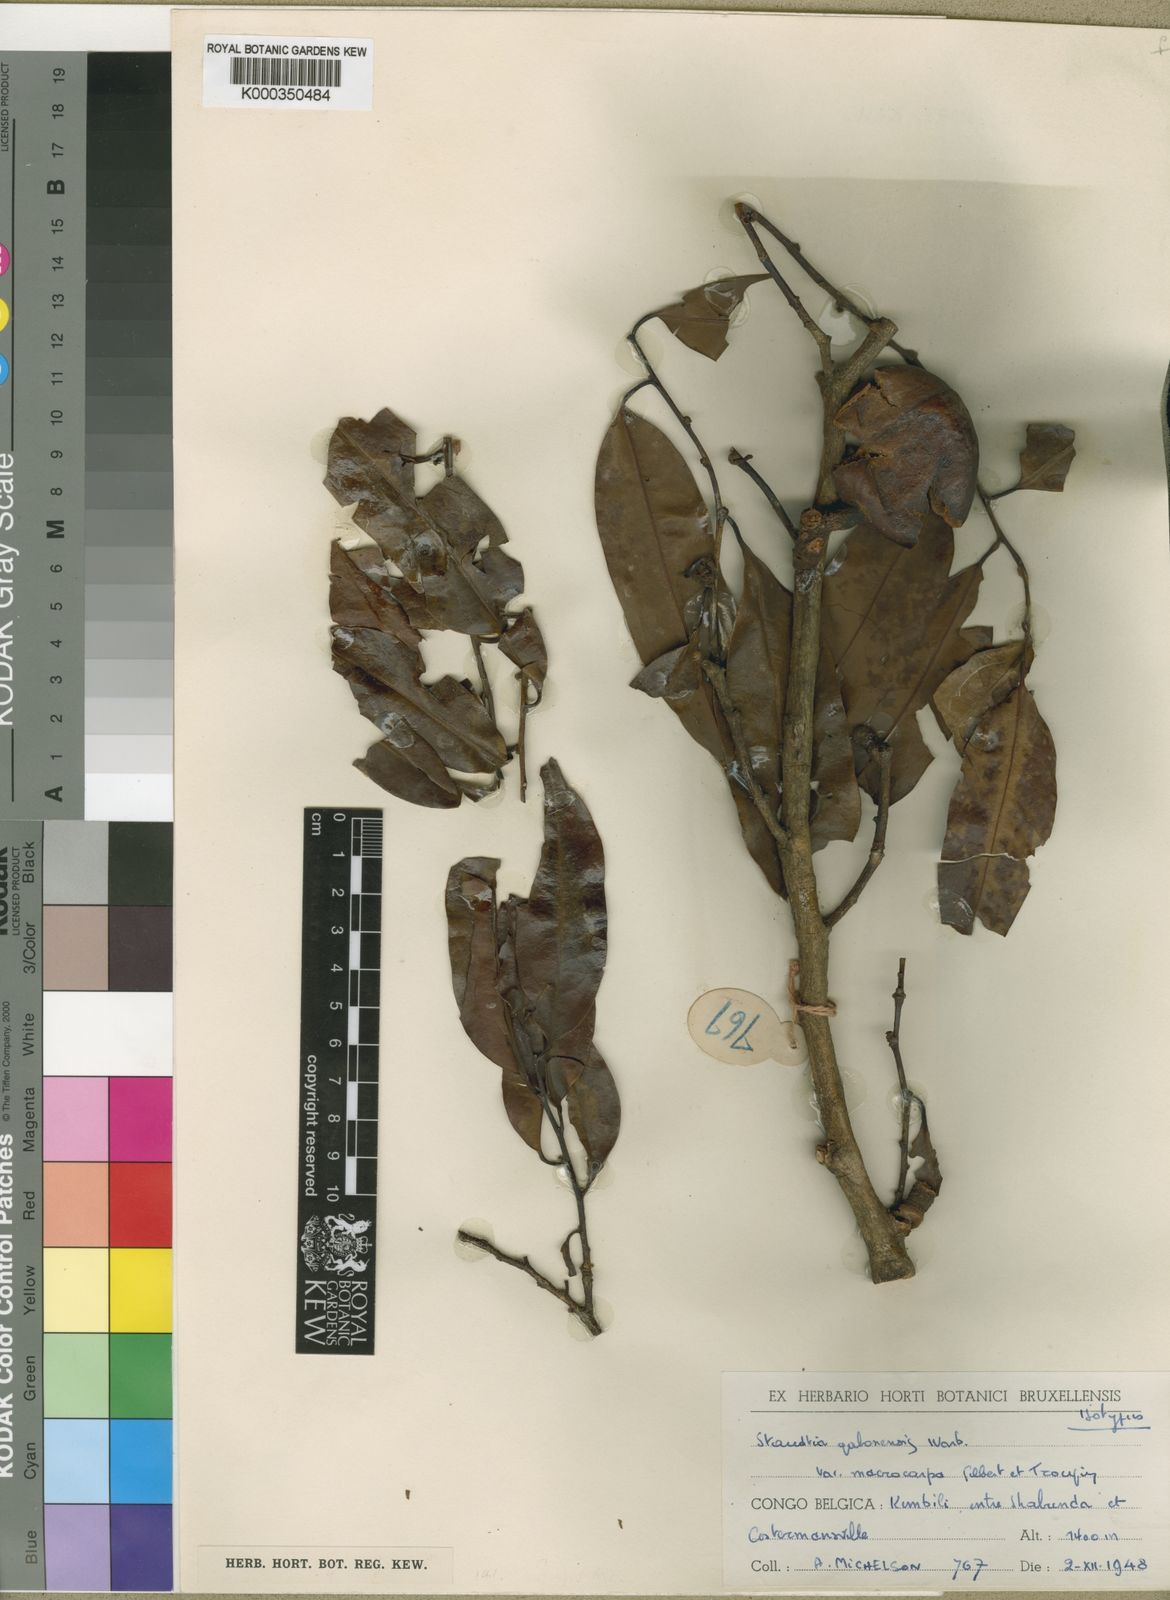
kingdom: Plantae
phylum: Tracheophyta
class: Magnoliopsida
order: Magnoliales
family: Myristicaceae
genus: Staudtia
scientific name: Staudtia kamerunensis
